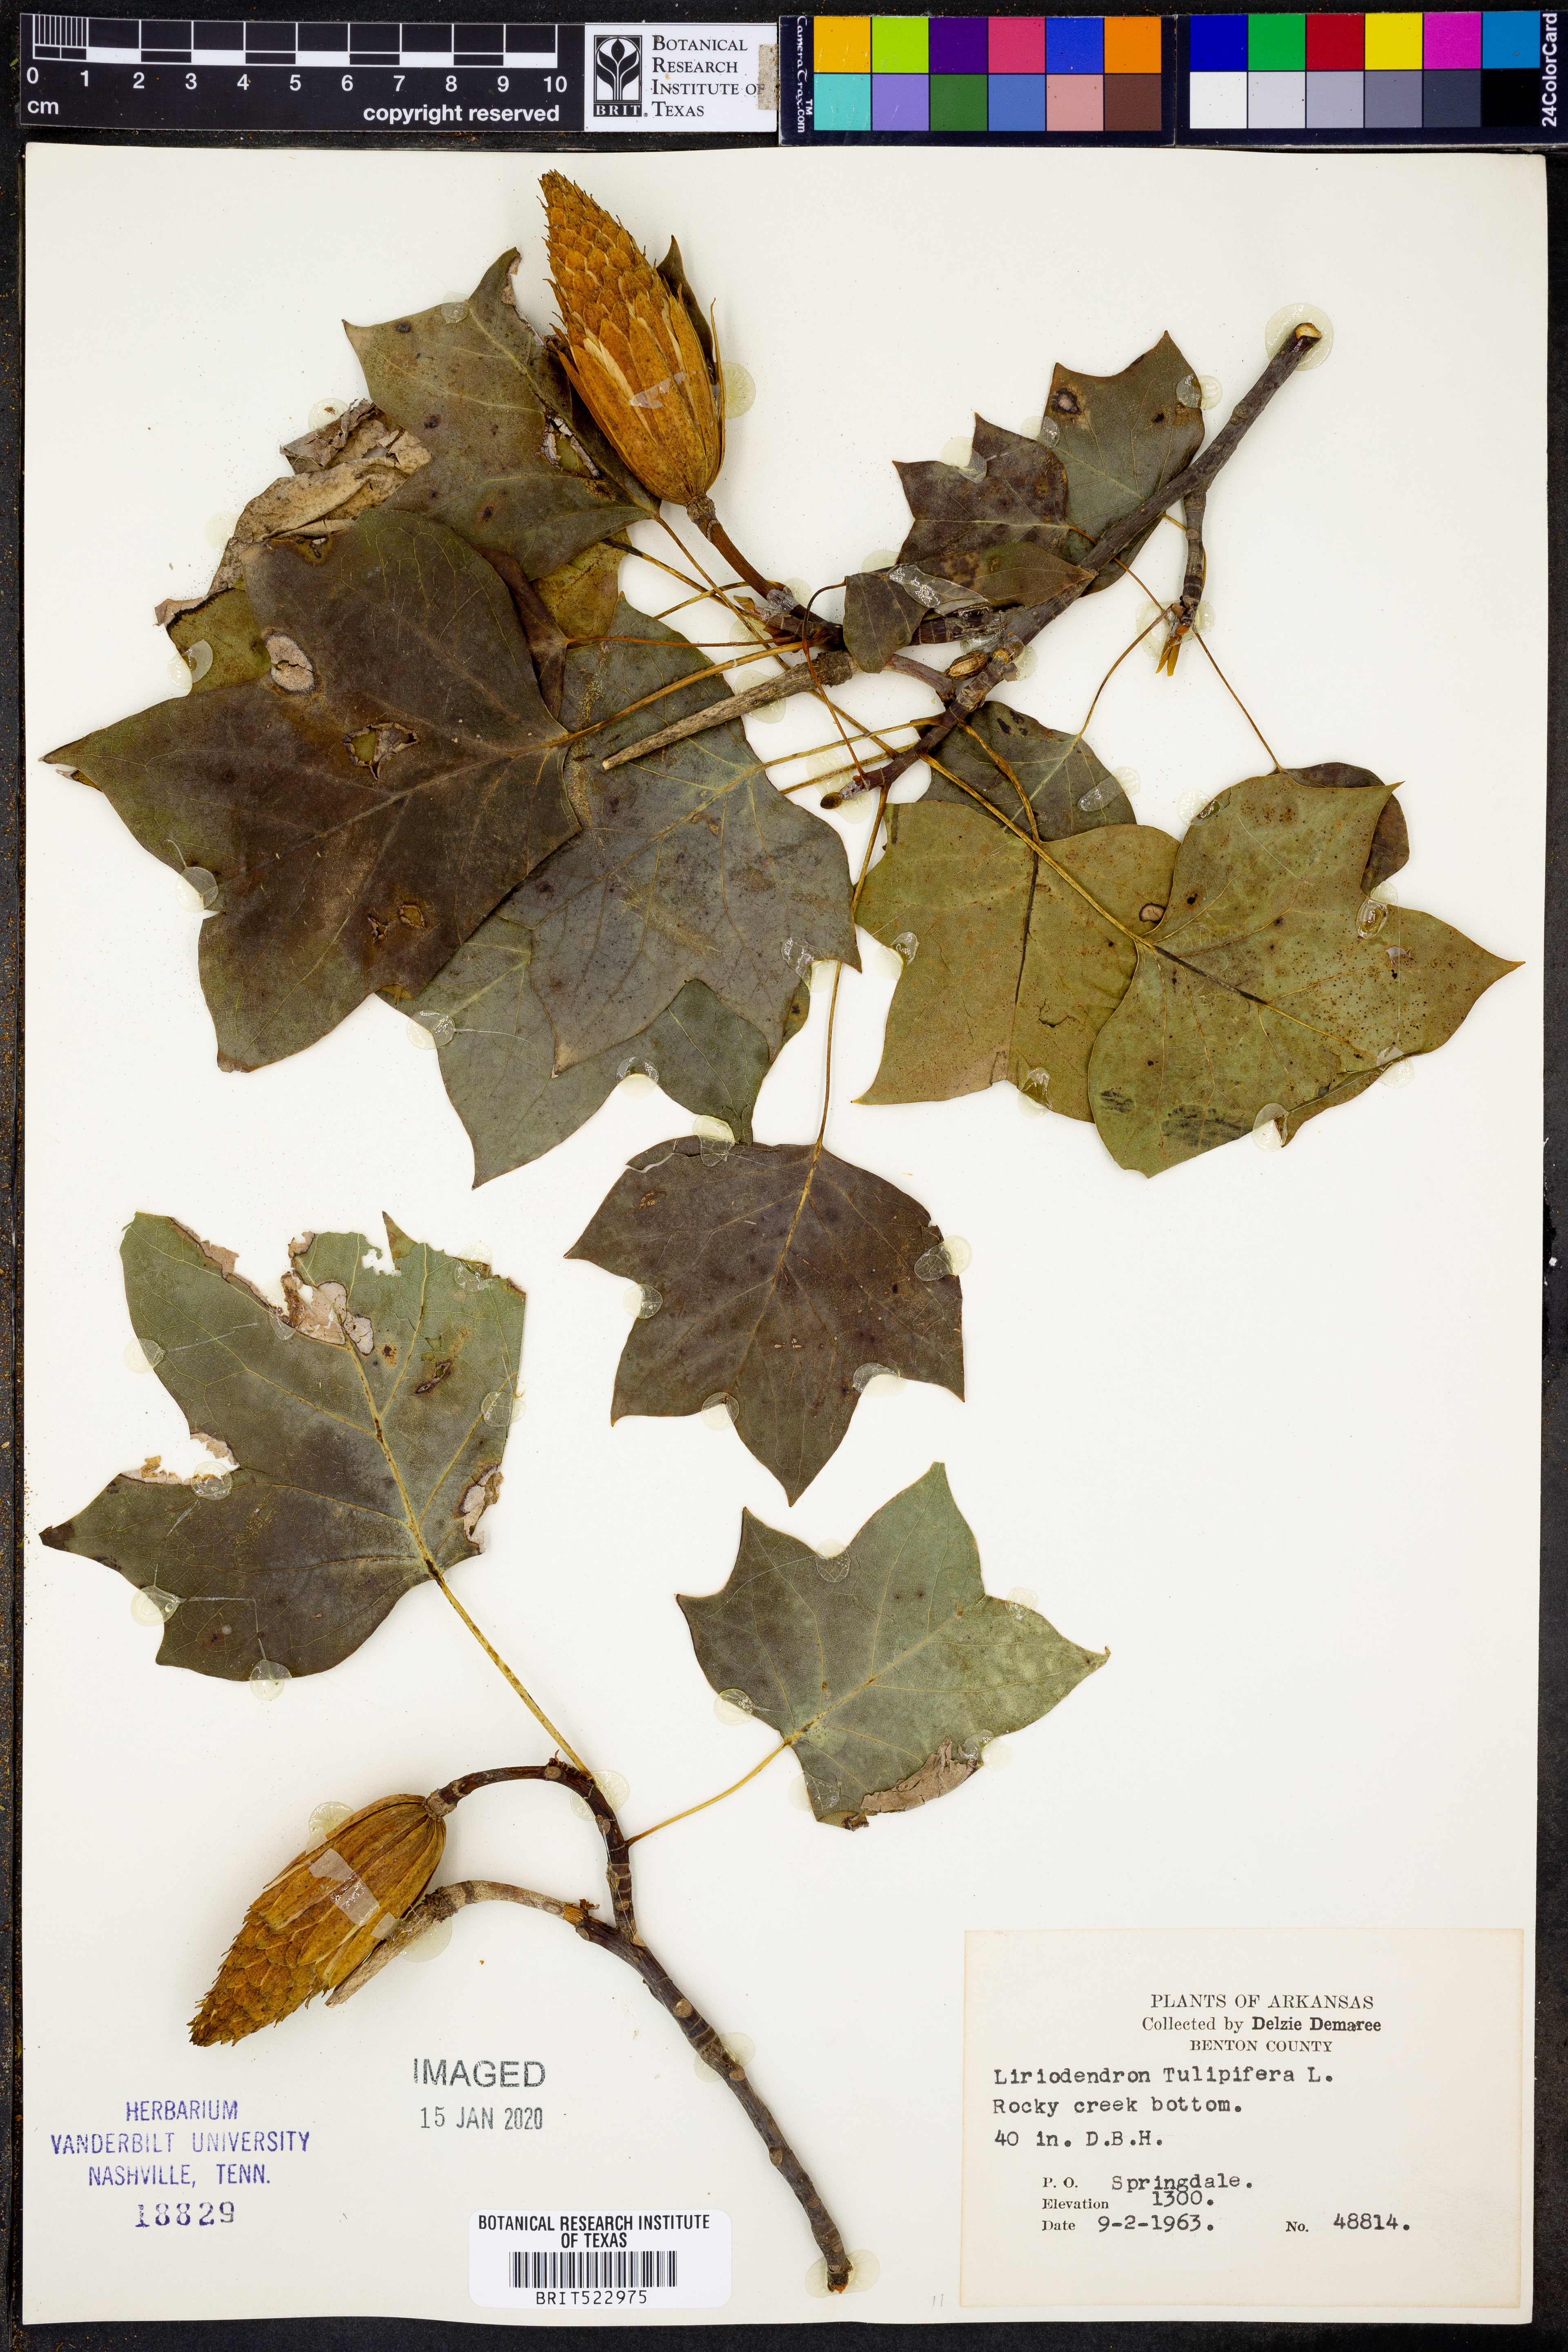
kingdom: Plantae
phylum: Tracheophyta
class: Magnoliopsida
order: Magnoliales
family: Magnoliaceae
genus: Liriodendron
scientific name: Liriodendron tulipifera
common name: Tulip tree
